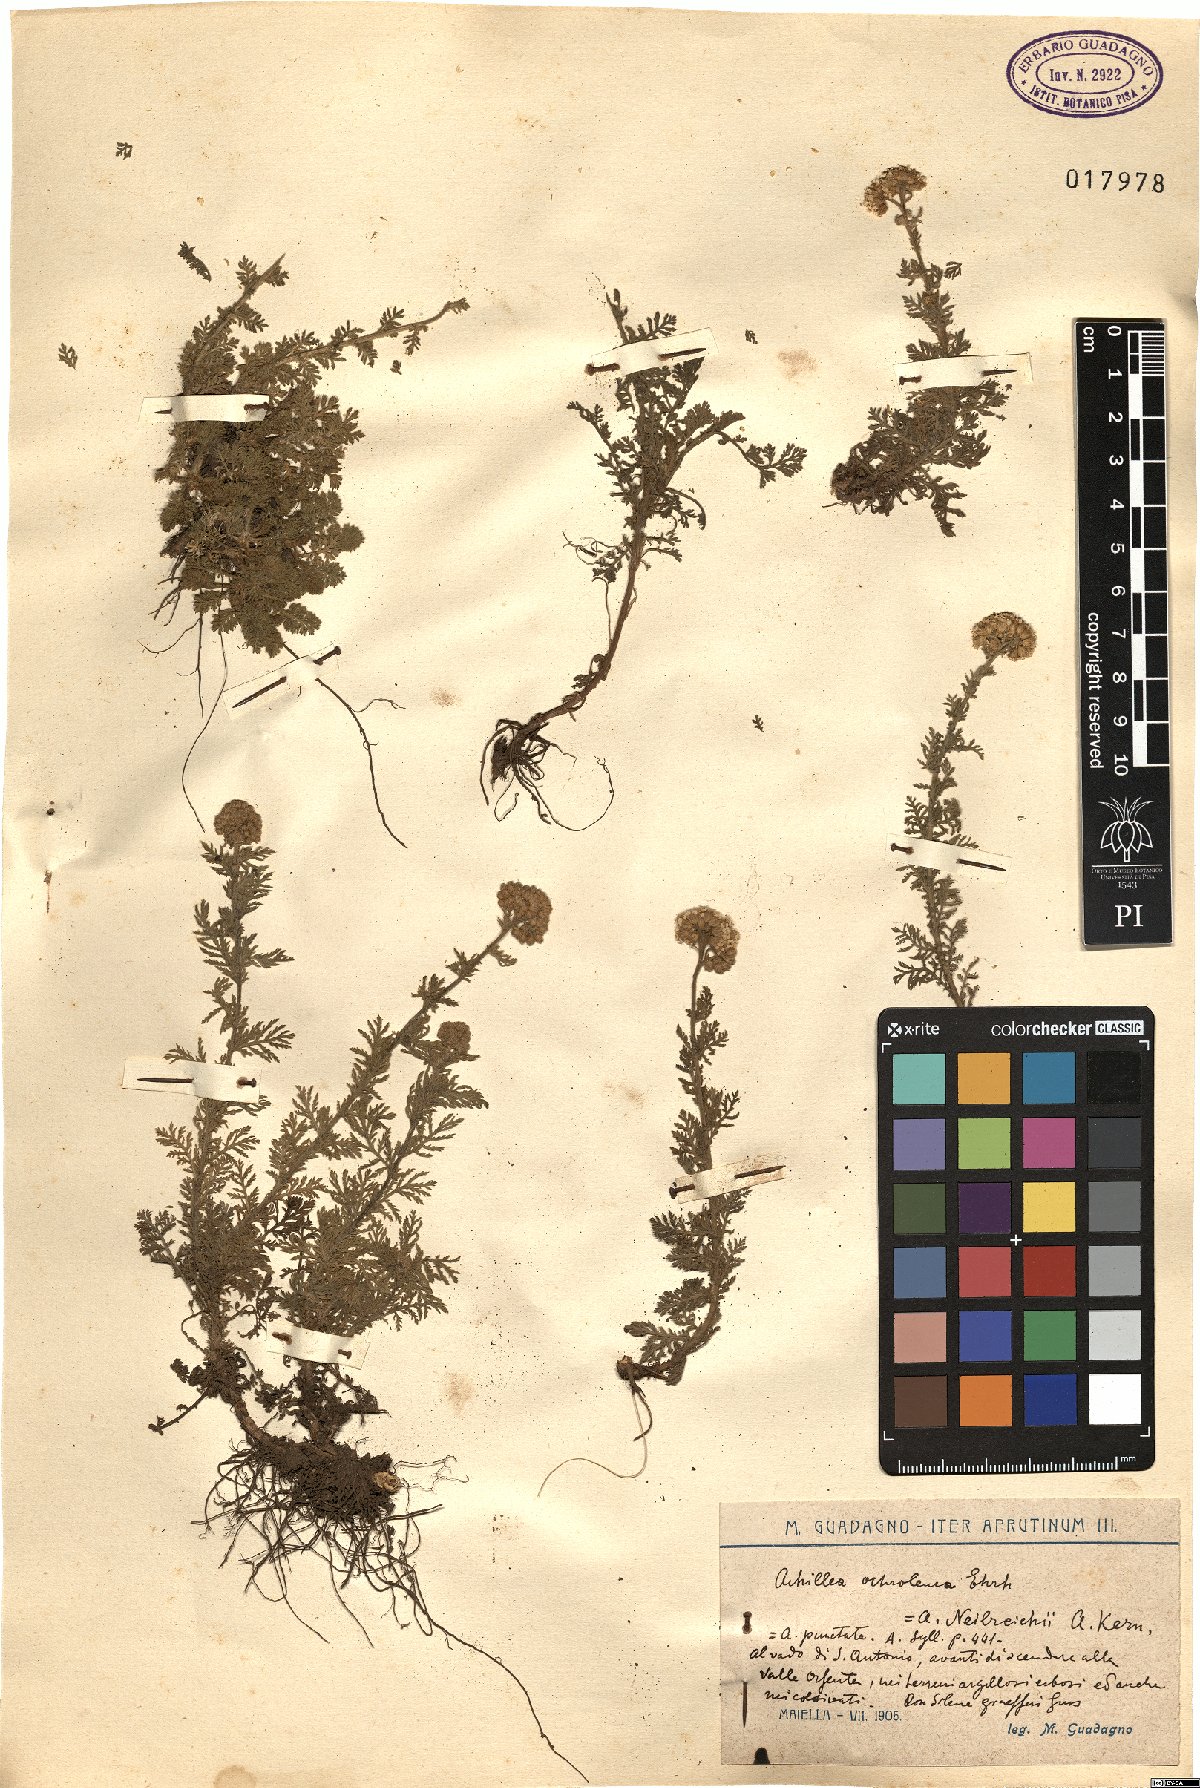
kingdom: Plantae
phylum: Tracheophyta
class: Magnoliopsida
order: Asterales
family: Asteraceae
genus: Achillea
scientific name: Achillea nobilis
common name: Noble yarrow
